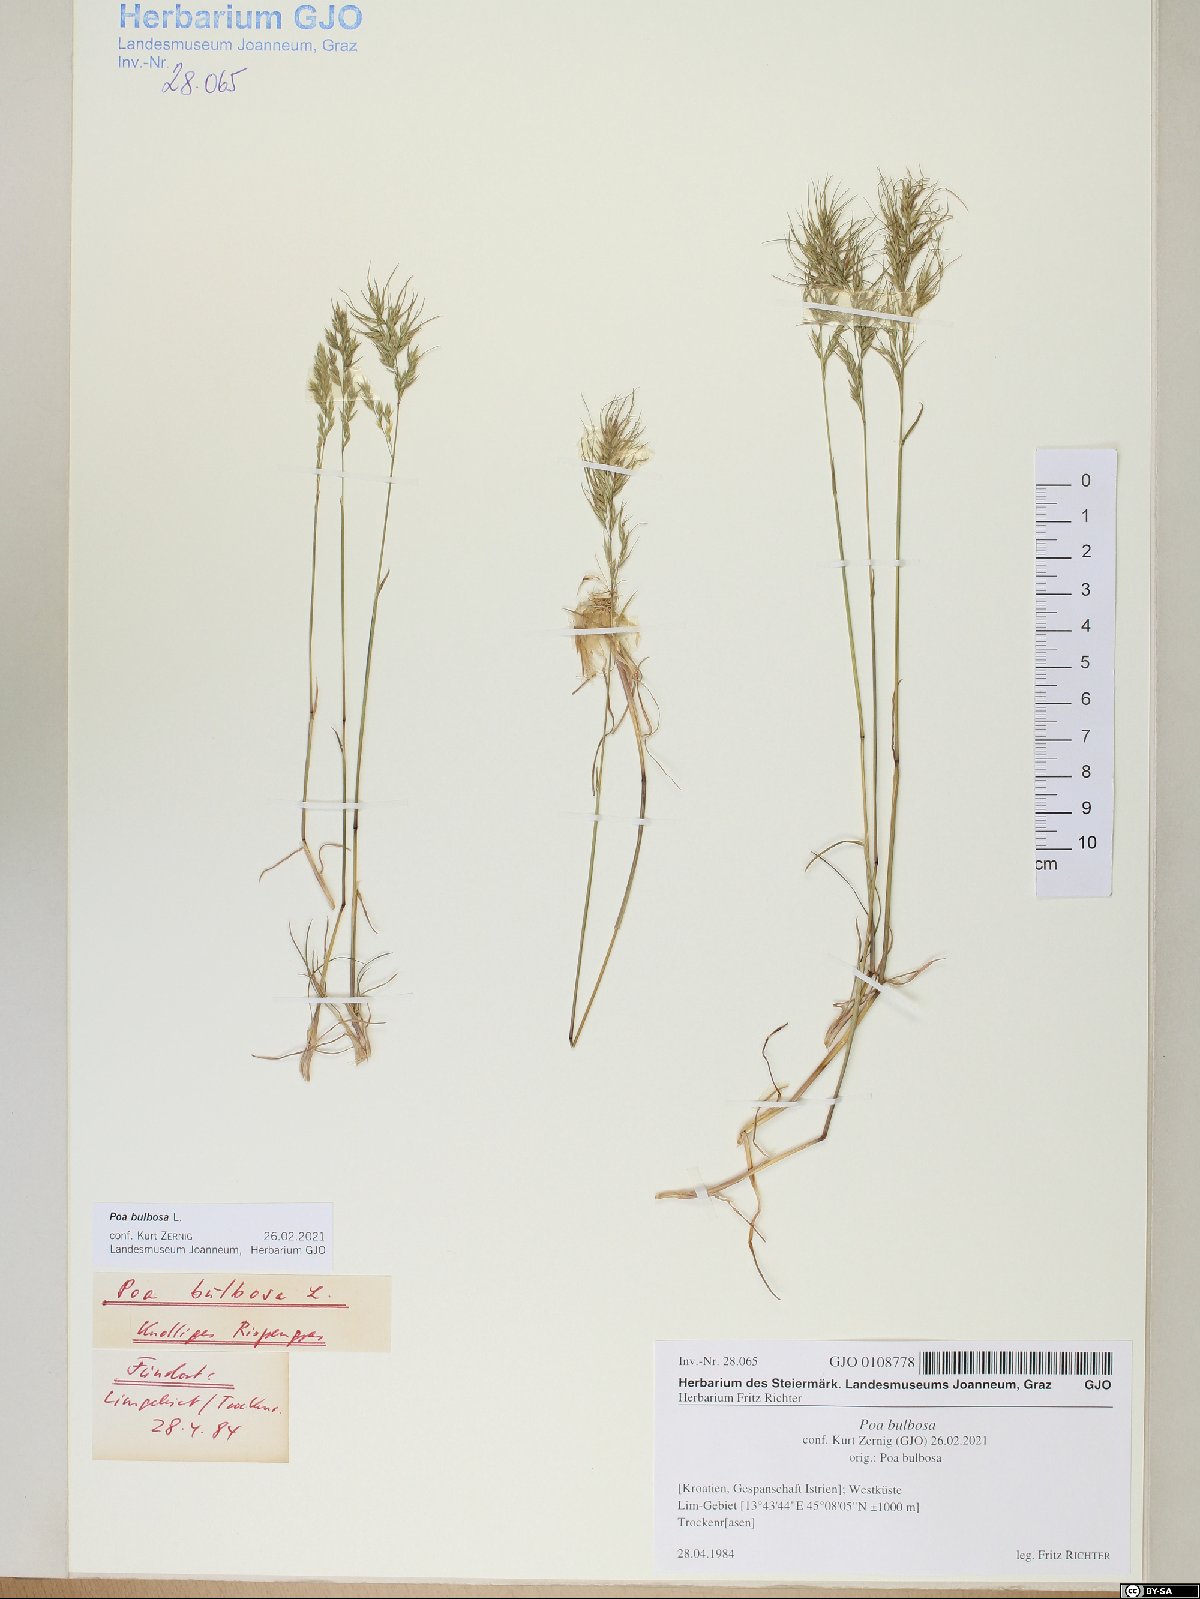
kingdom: Plantae
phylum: Tracheophyta
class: Liliopsida
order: Poales
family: Poaceae
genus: Poa
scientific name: Poa bulbosa
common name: Bulbous bluegrass
